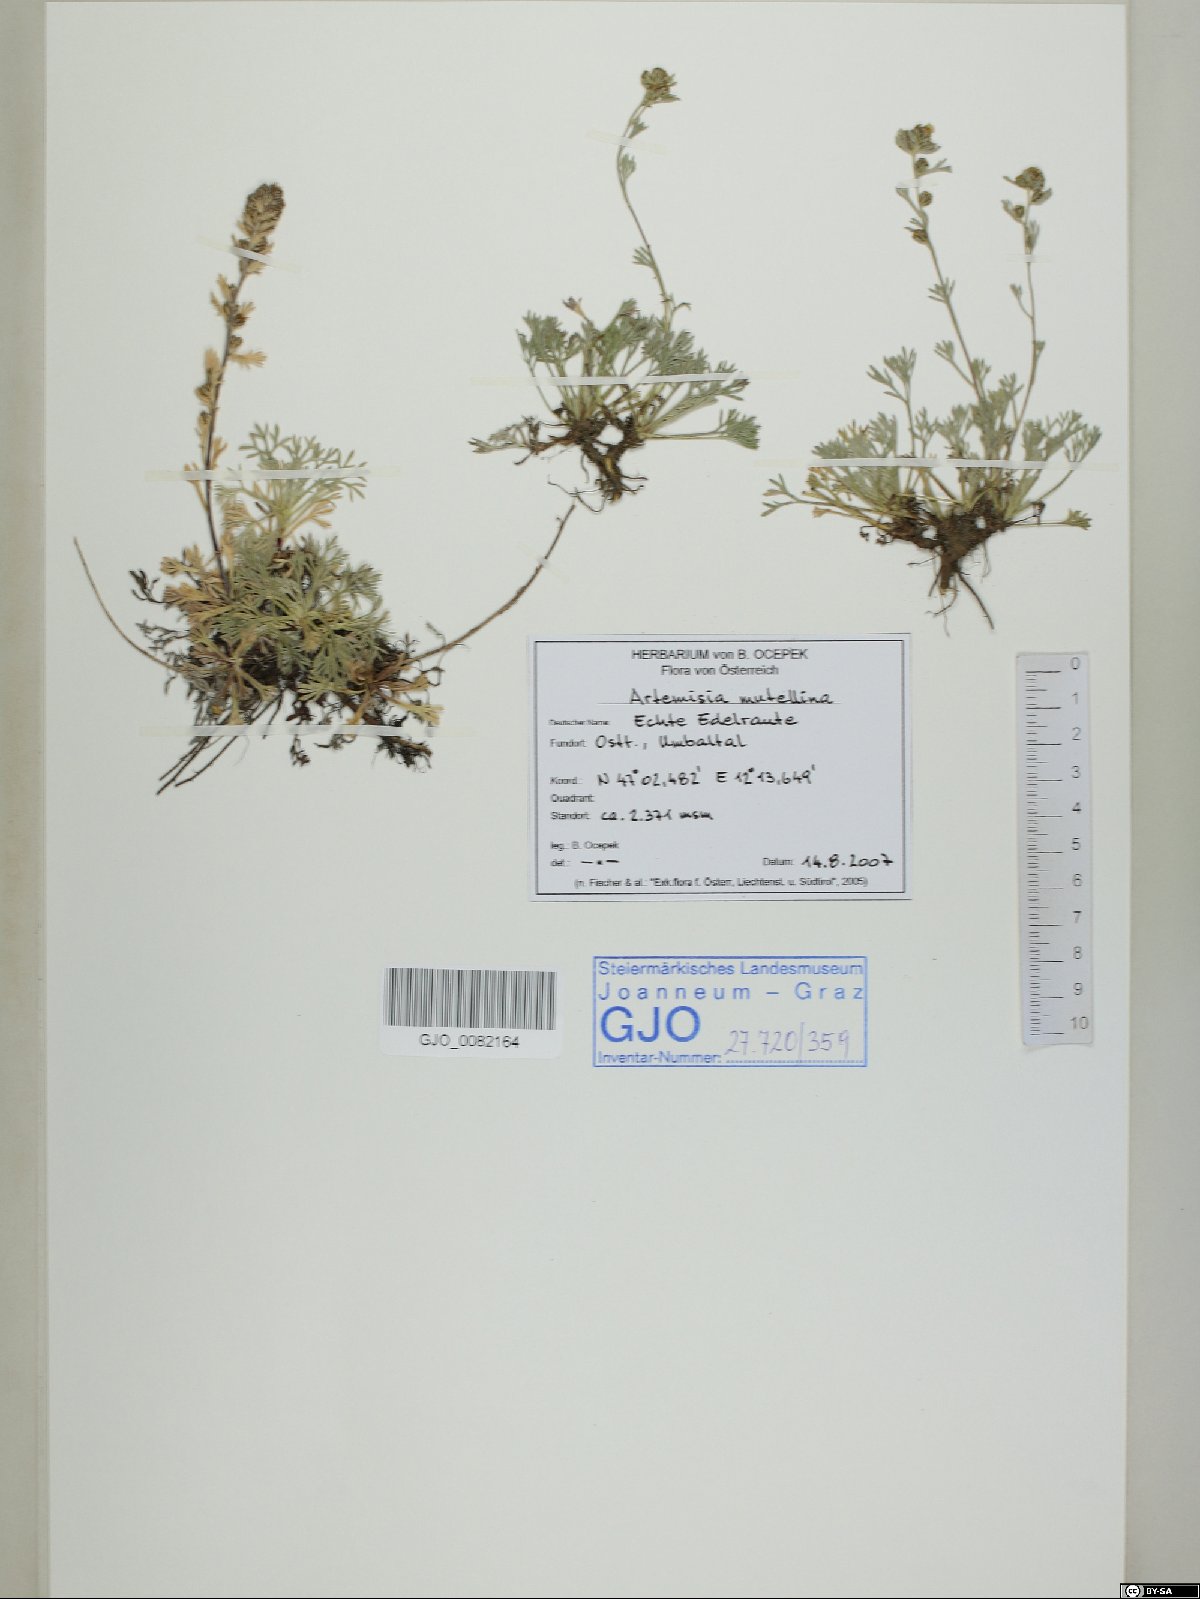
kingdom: Plantae
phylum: Tracheophyta
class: Magnoliopsida
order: Asterales
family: Asteraceae
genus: Artemisia
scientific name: Artemisia mutellina
